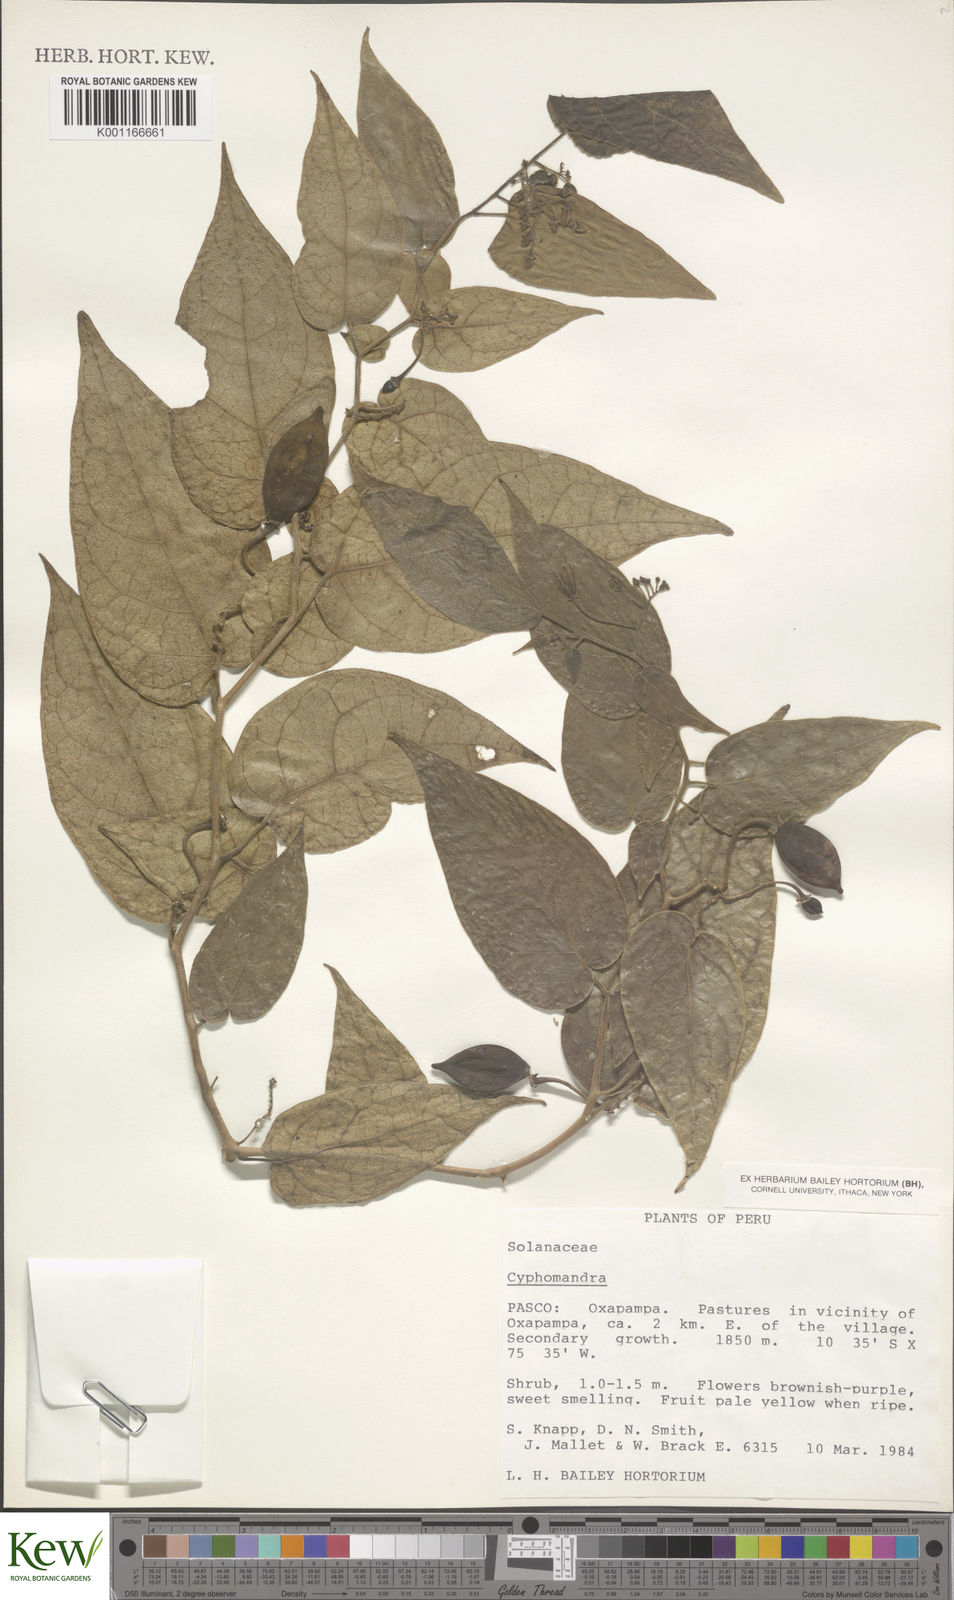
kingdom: Plantae
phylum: Tracheophyta
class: Magnoliopsida
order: Solanales
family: Solanaceae
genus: Solanum
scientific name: Solanum
